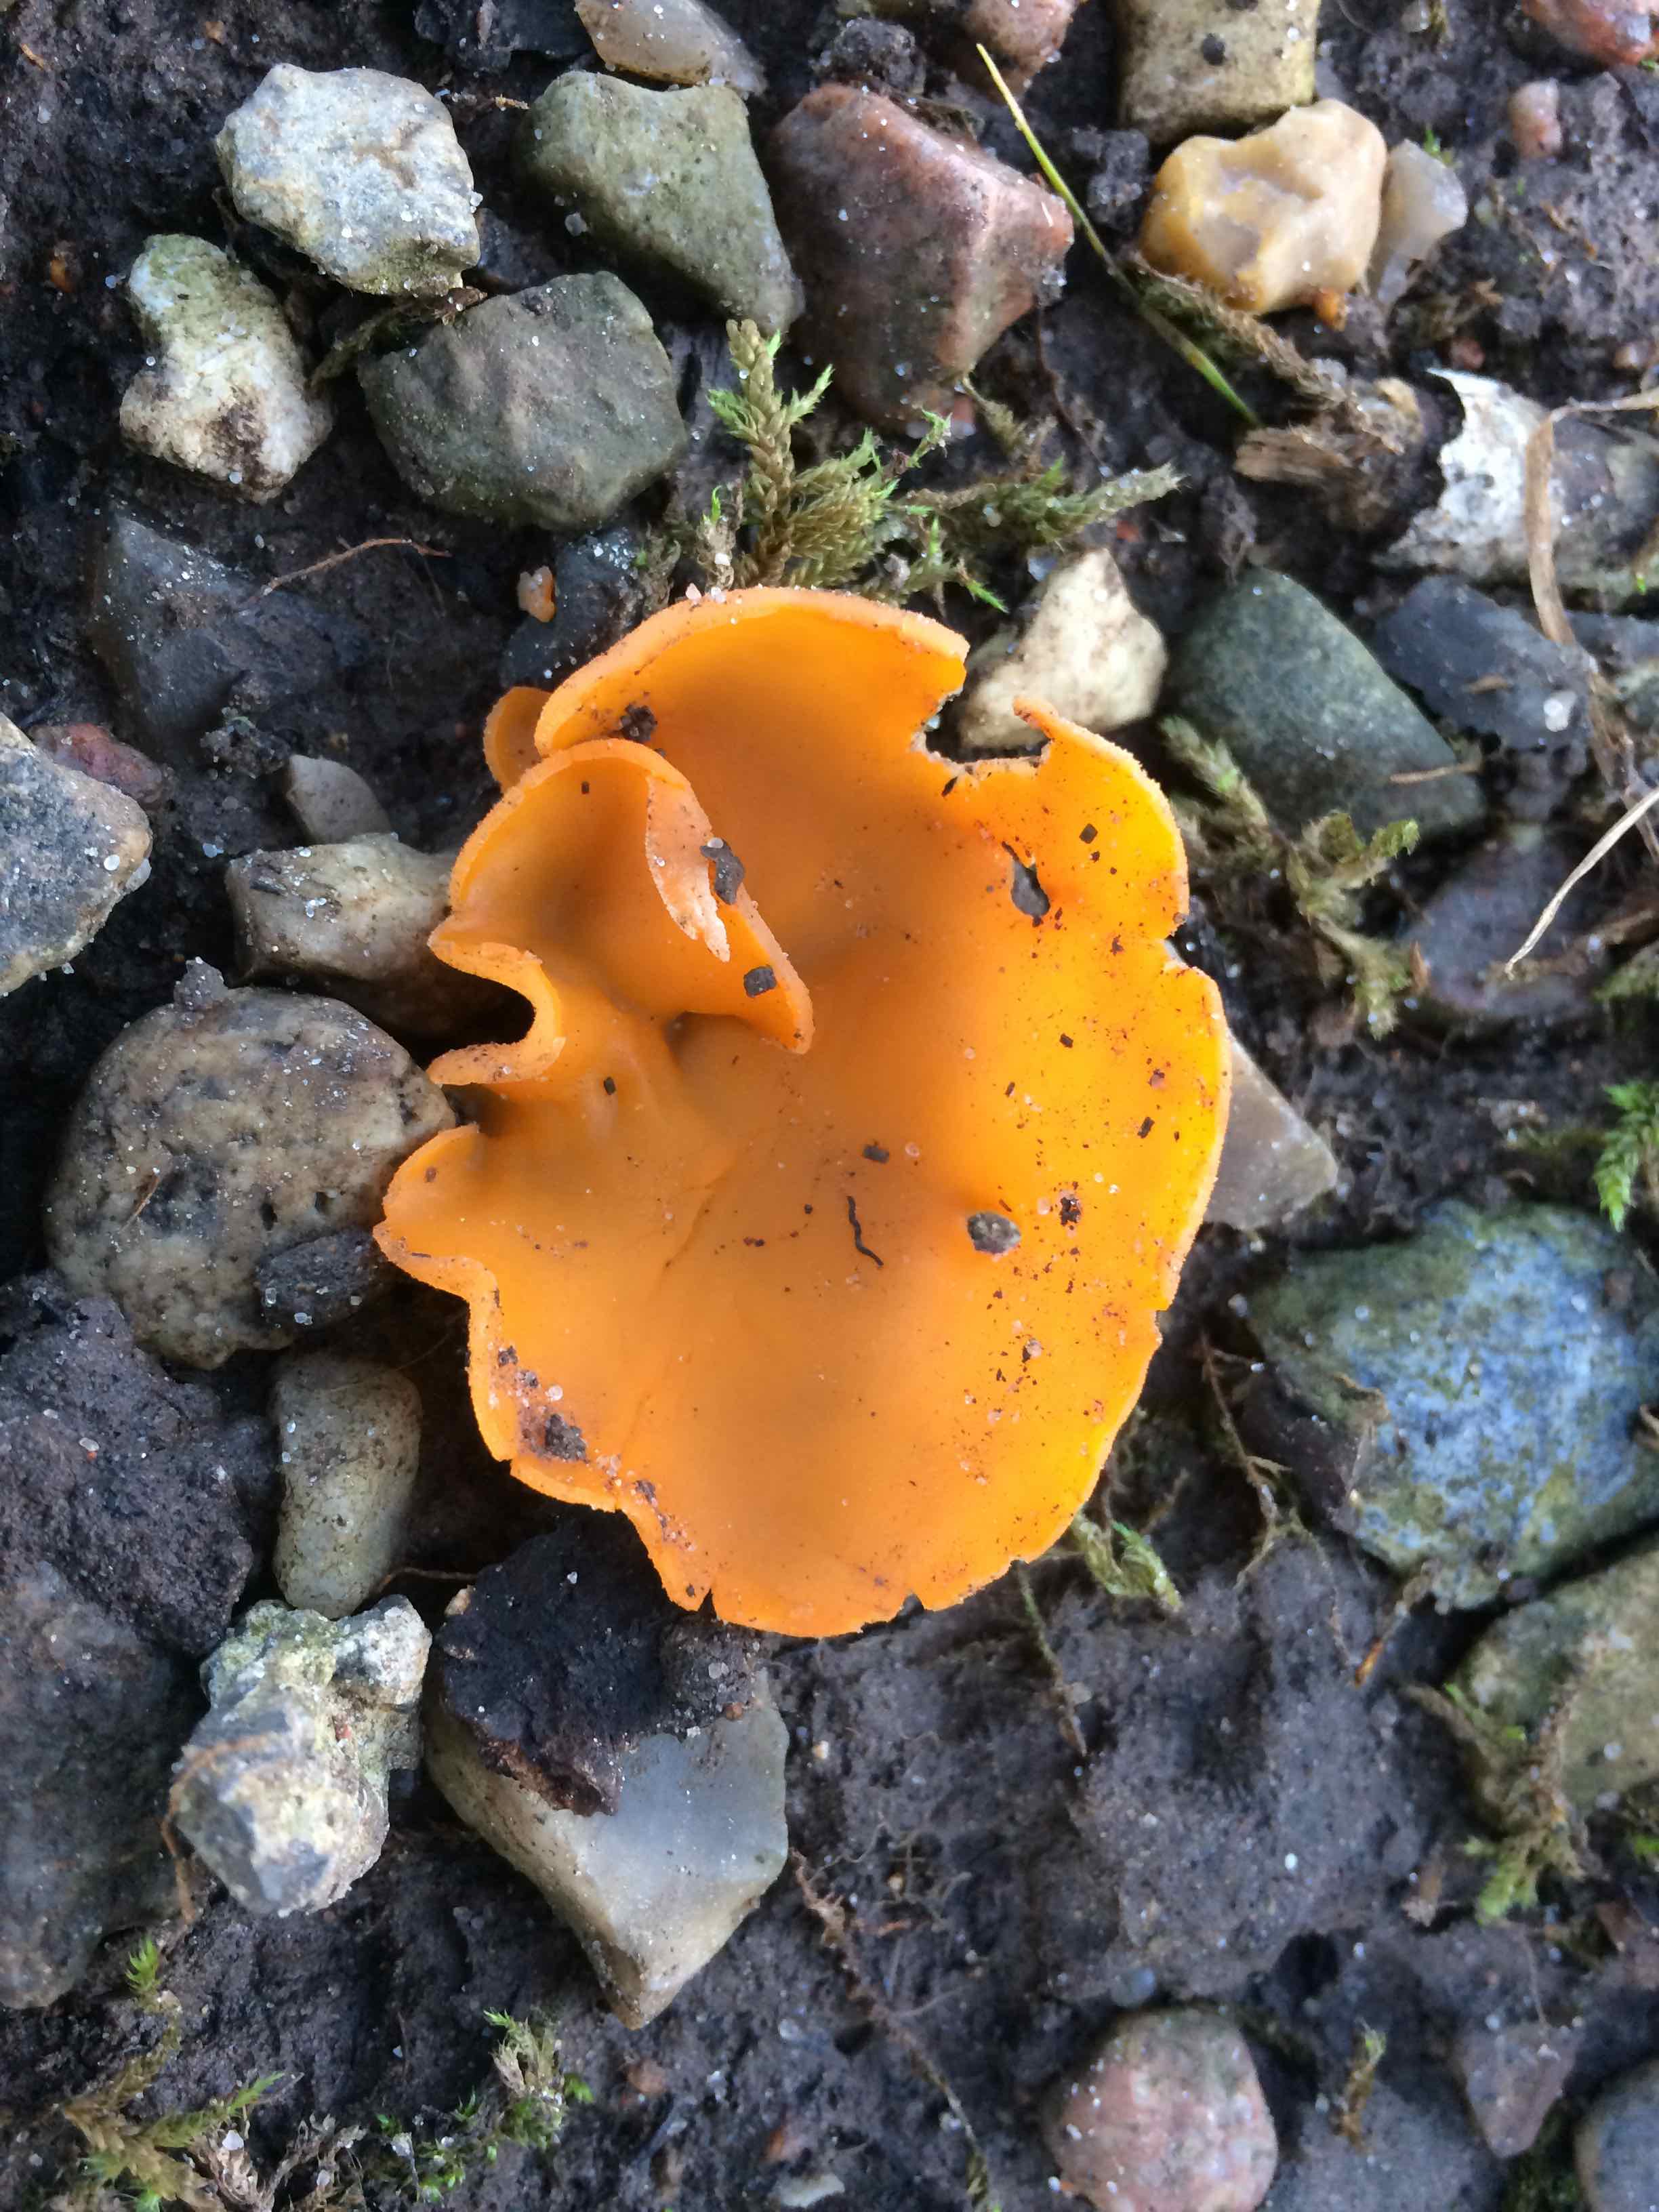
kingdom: Fungi
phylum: Ascomycota
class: Pezizomycetes
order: Pezizales
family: Pyronemataceae
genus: Aleuria
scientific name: Aleuria aurantia
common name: almindelig orangebæger
